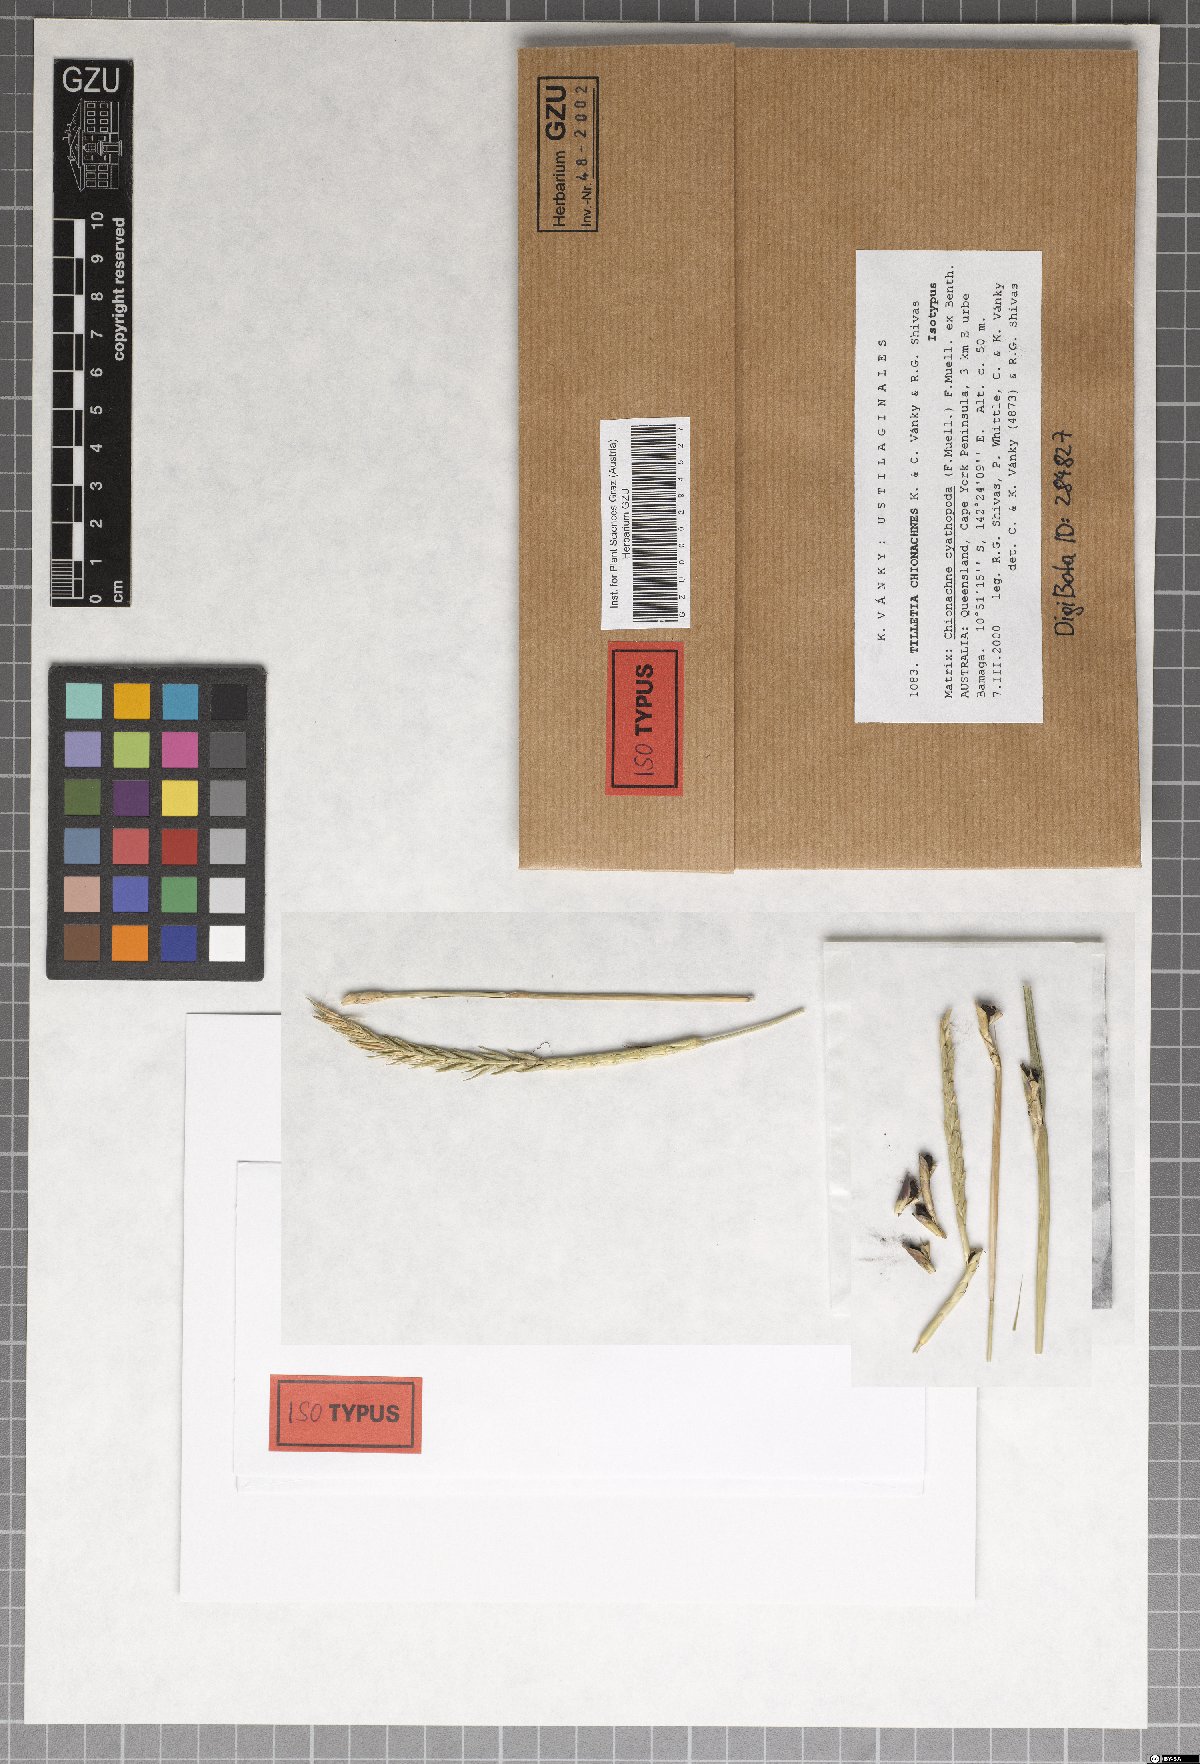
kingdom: Fungi
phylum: Basidiomycota
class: Exobasidiomycetes
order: Tilletiales
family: Tilletiaceae
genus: Tilletia
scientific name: Tilletia chionachnes
